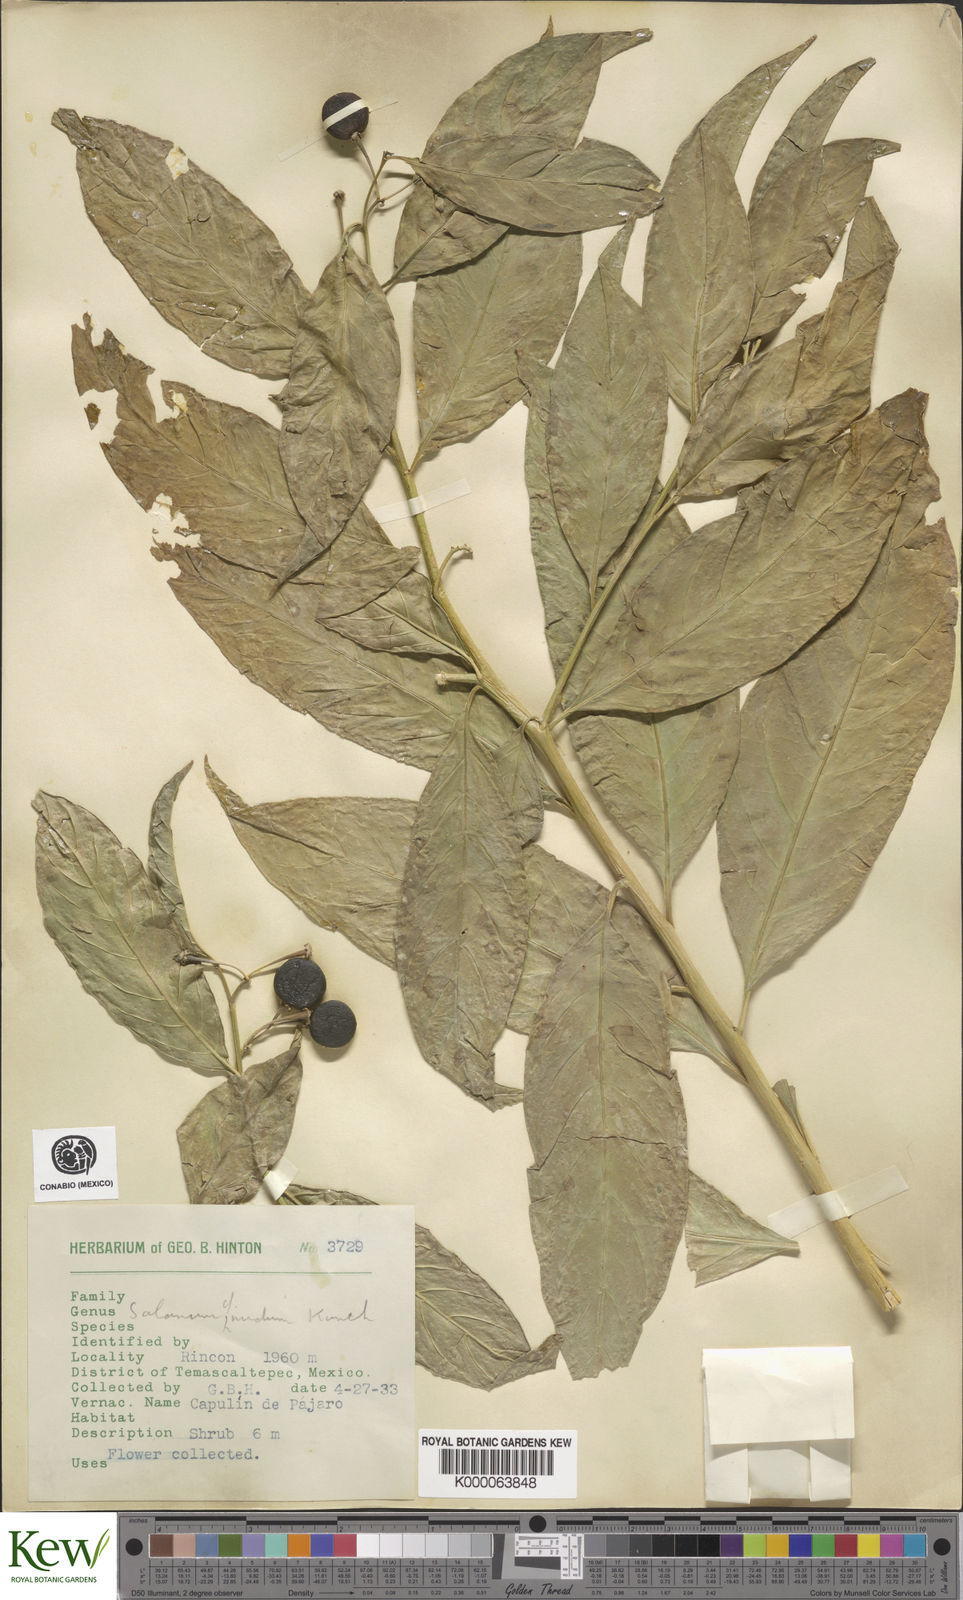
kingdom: Plantae
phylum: Tracheophyta
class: Magnoliopsida
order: Solanales
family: Solanaceae
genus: Solanum
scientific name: Solanum nudum
